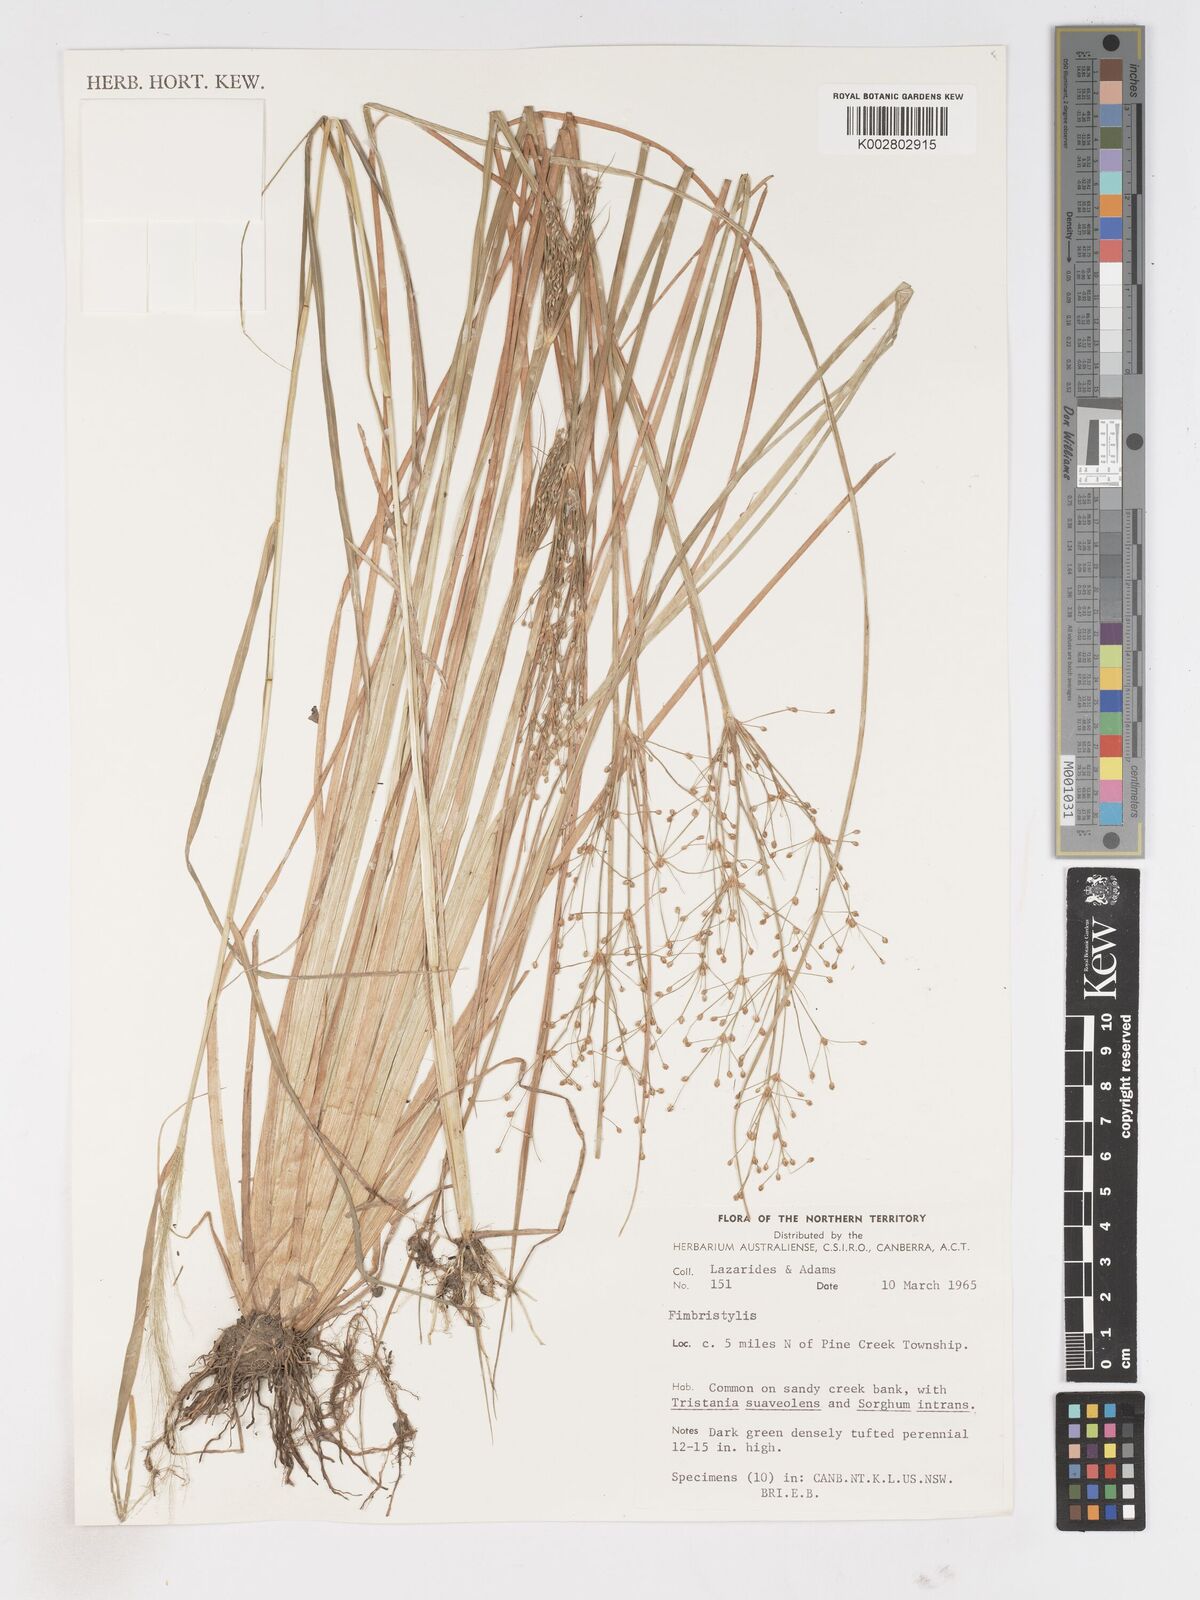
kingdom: Plantae
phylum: Tracheophyta
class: Liliopsida
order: Poales
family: Cyperaceae
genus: Fimbristylis
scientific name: Fimbristylis
